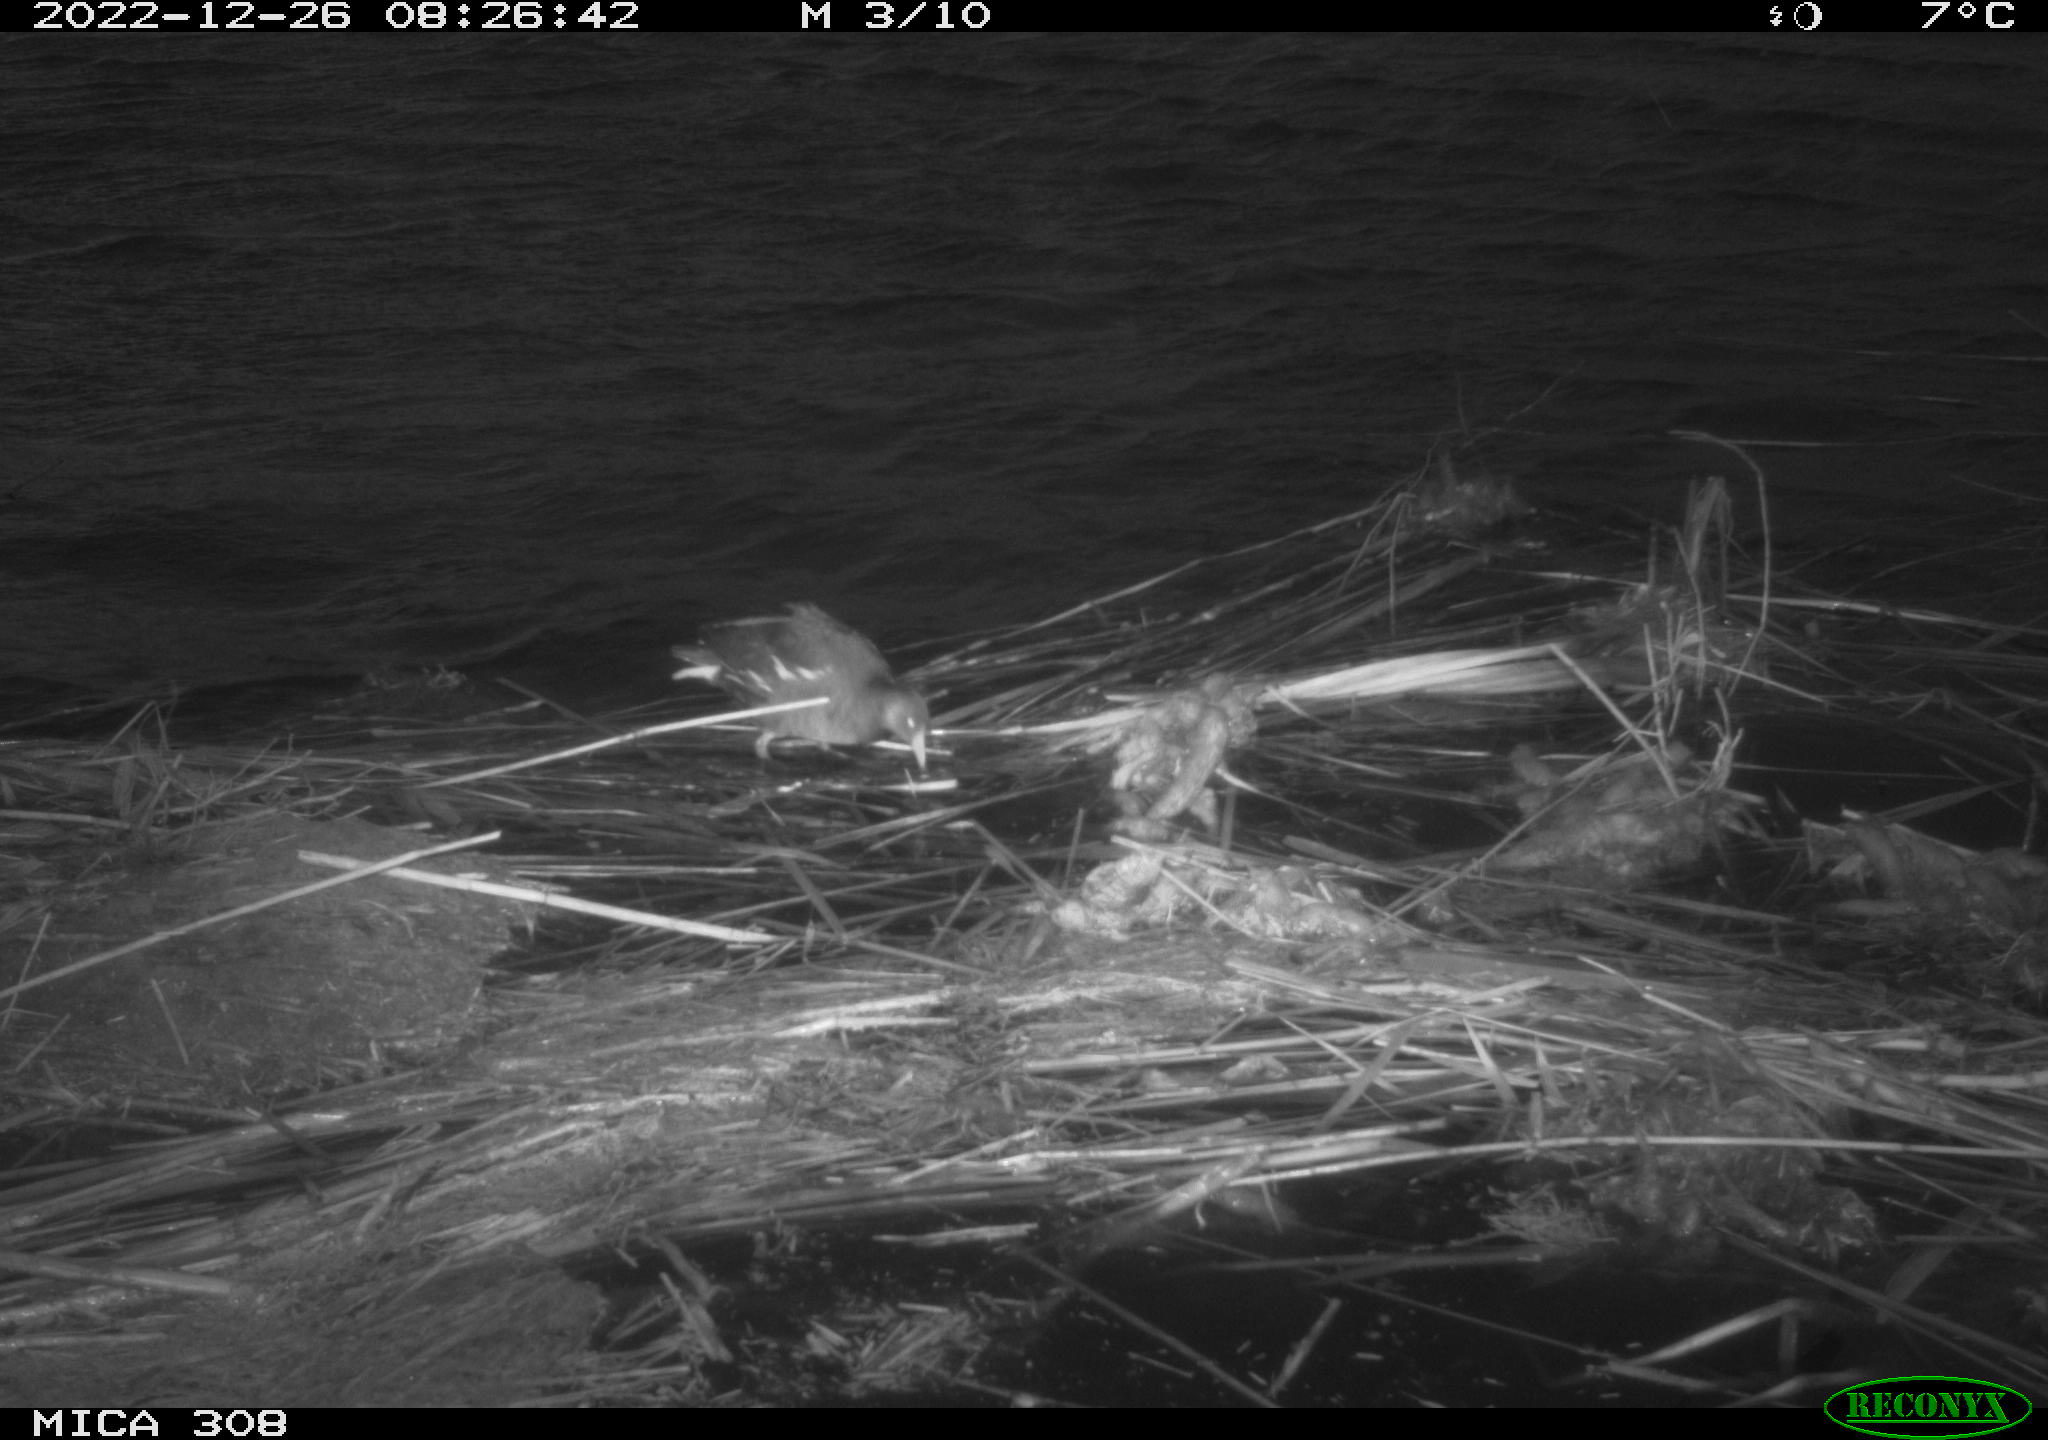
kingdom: Animalia
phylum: Chordata
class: Aves
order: Anseriformes
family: Anatidae
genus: Anas
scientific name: Anas
